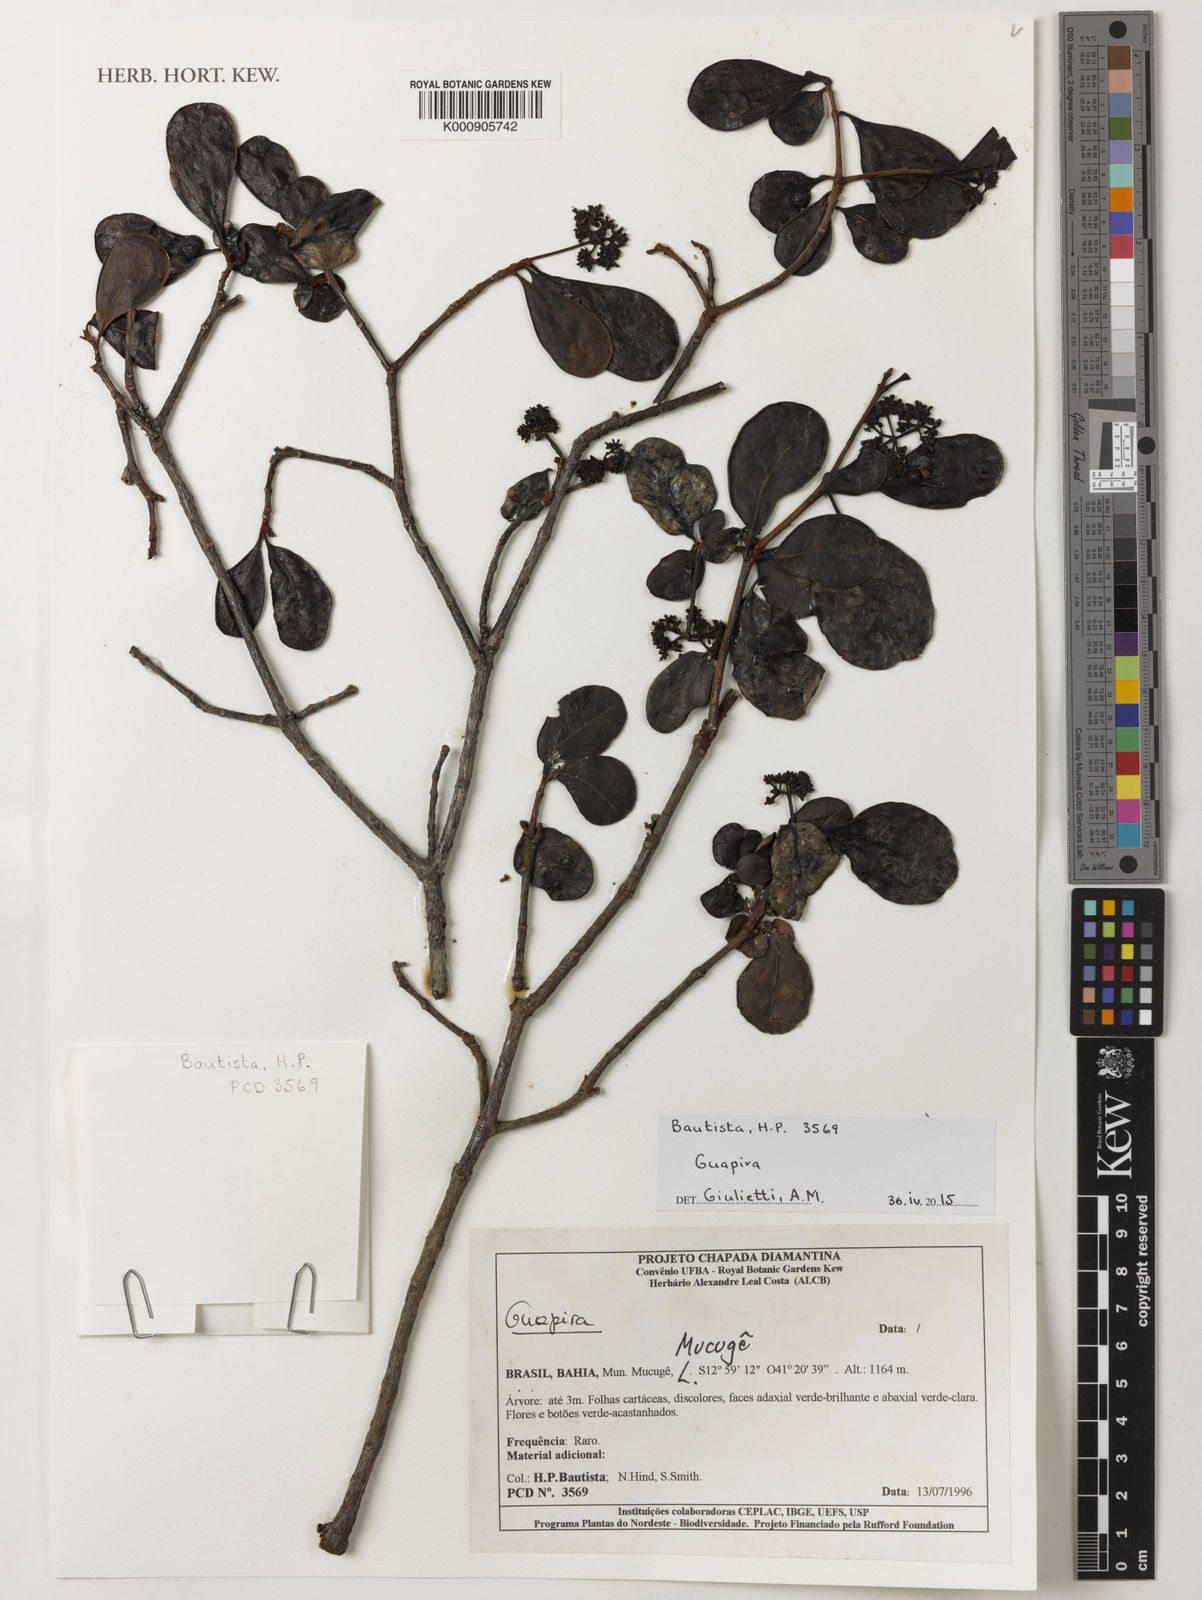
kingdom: Plantae
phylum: Tracheophyta
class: Magnoliopsida
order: Caryophyllales
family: Nyctaginaceae
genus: Guapira
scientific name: Guapira
